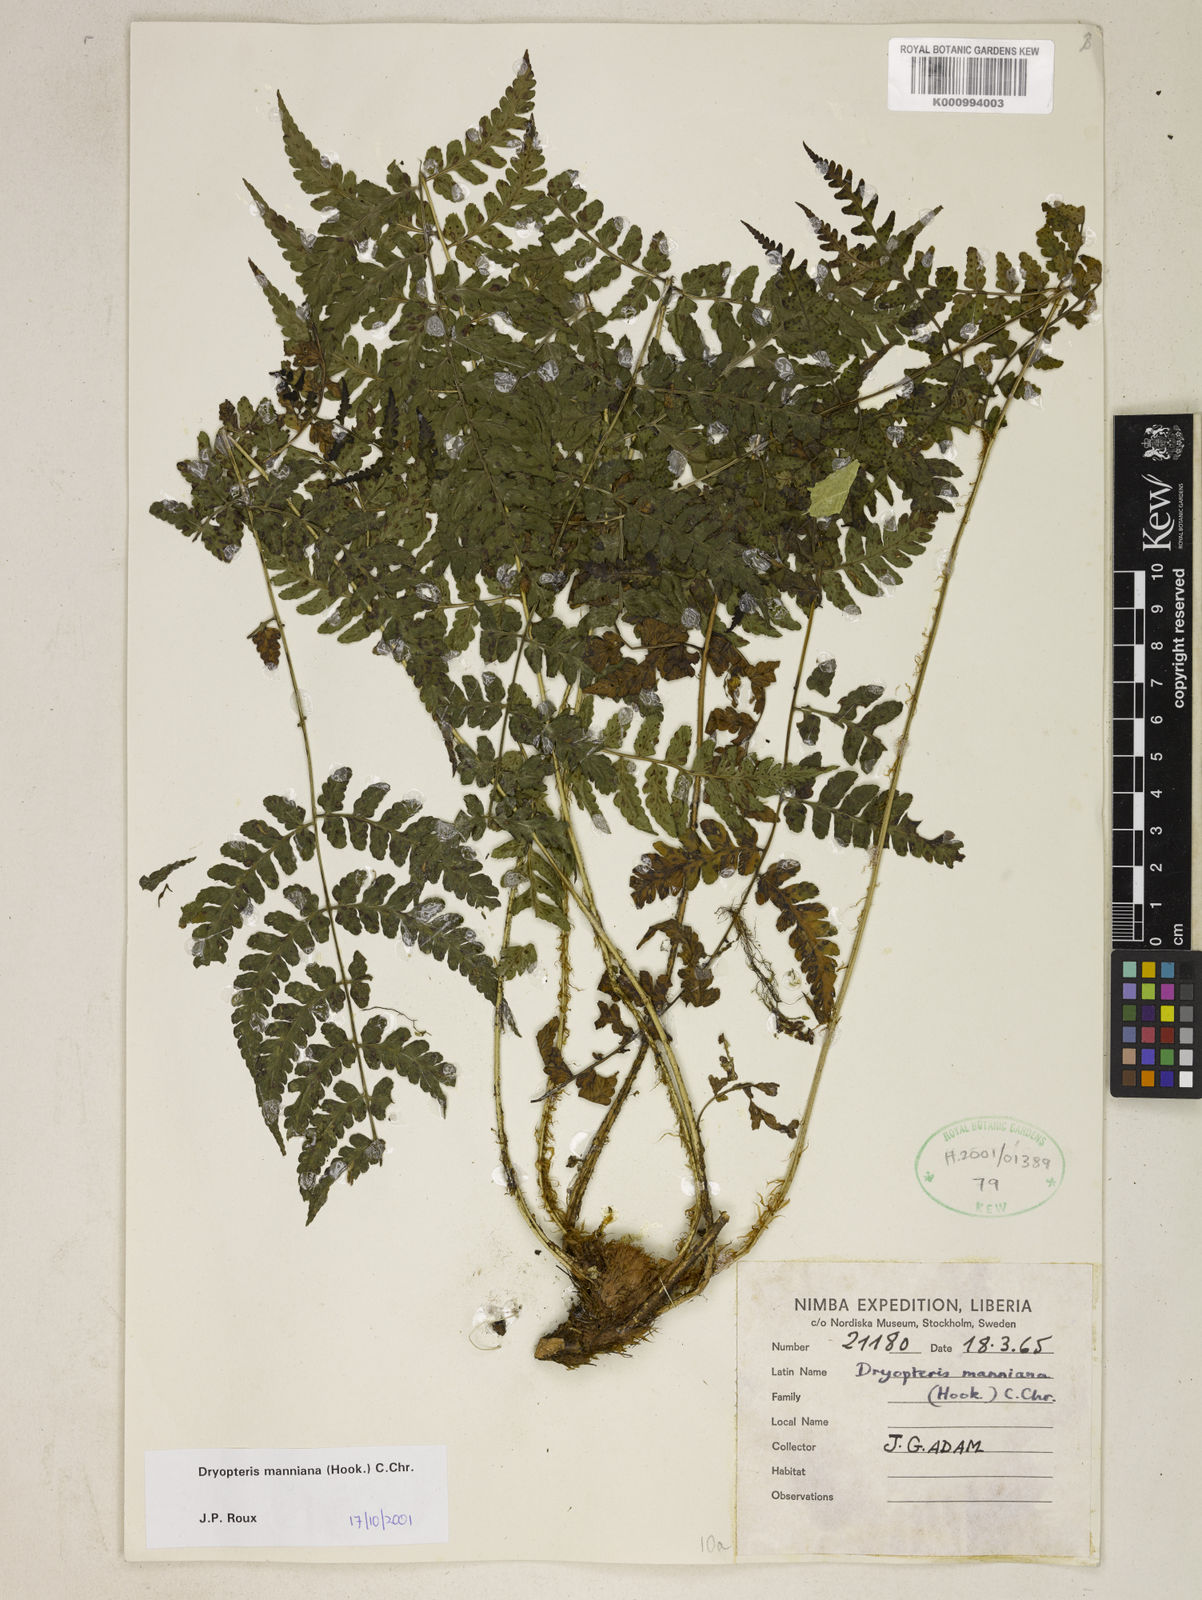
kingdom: Plantae
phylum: Tracheophyta
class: Polypodiopsida
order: Polypodiales
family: Dryopteridaceae
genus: Dryopteris
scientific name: Dryopteris manniana
